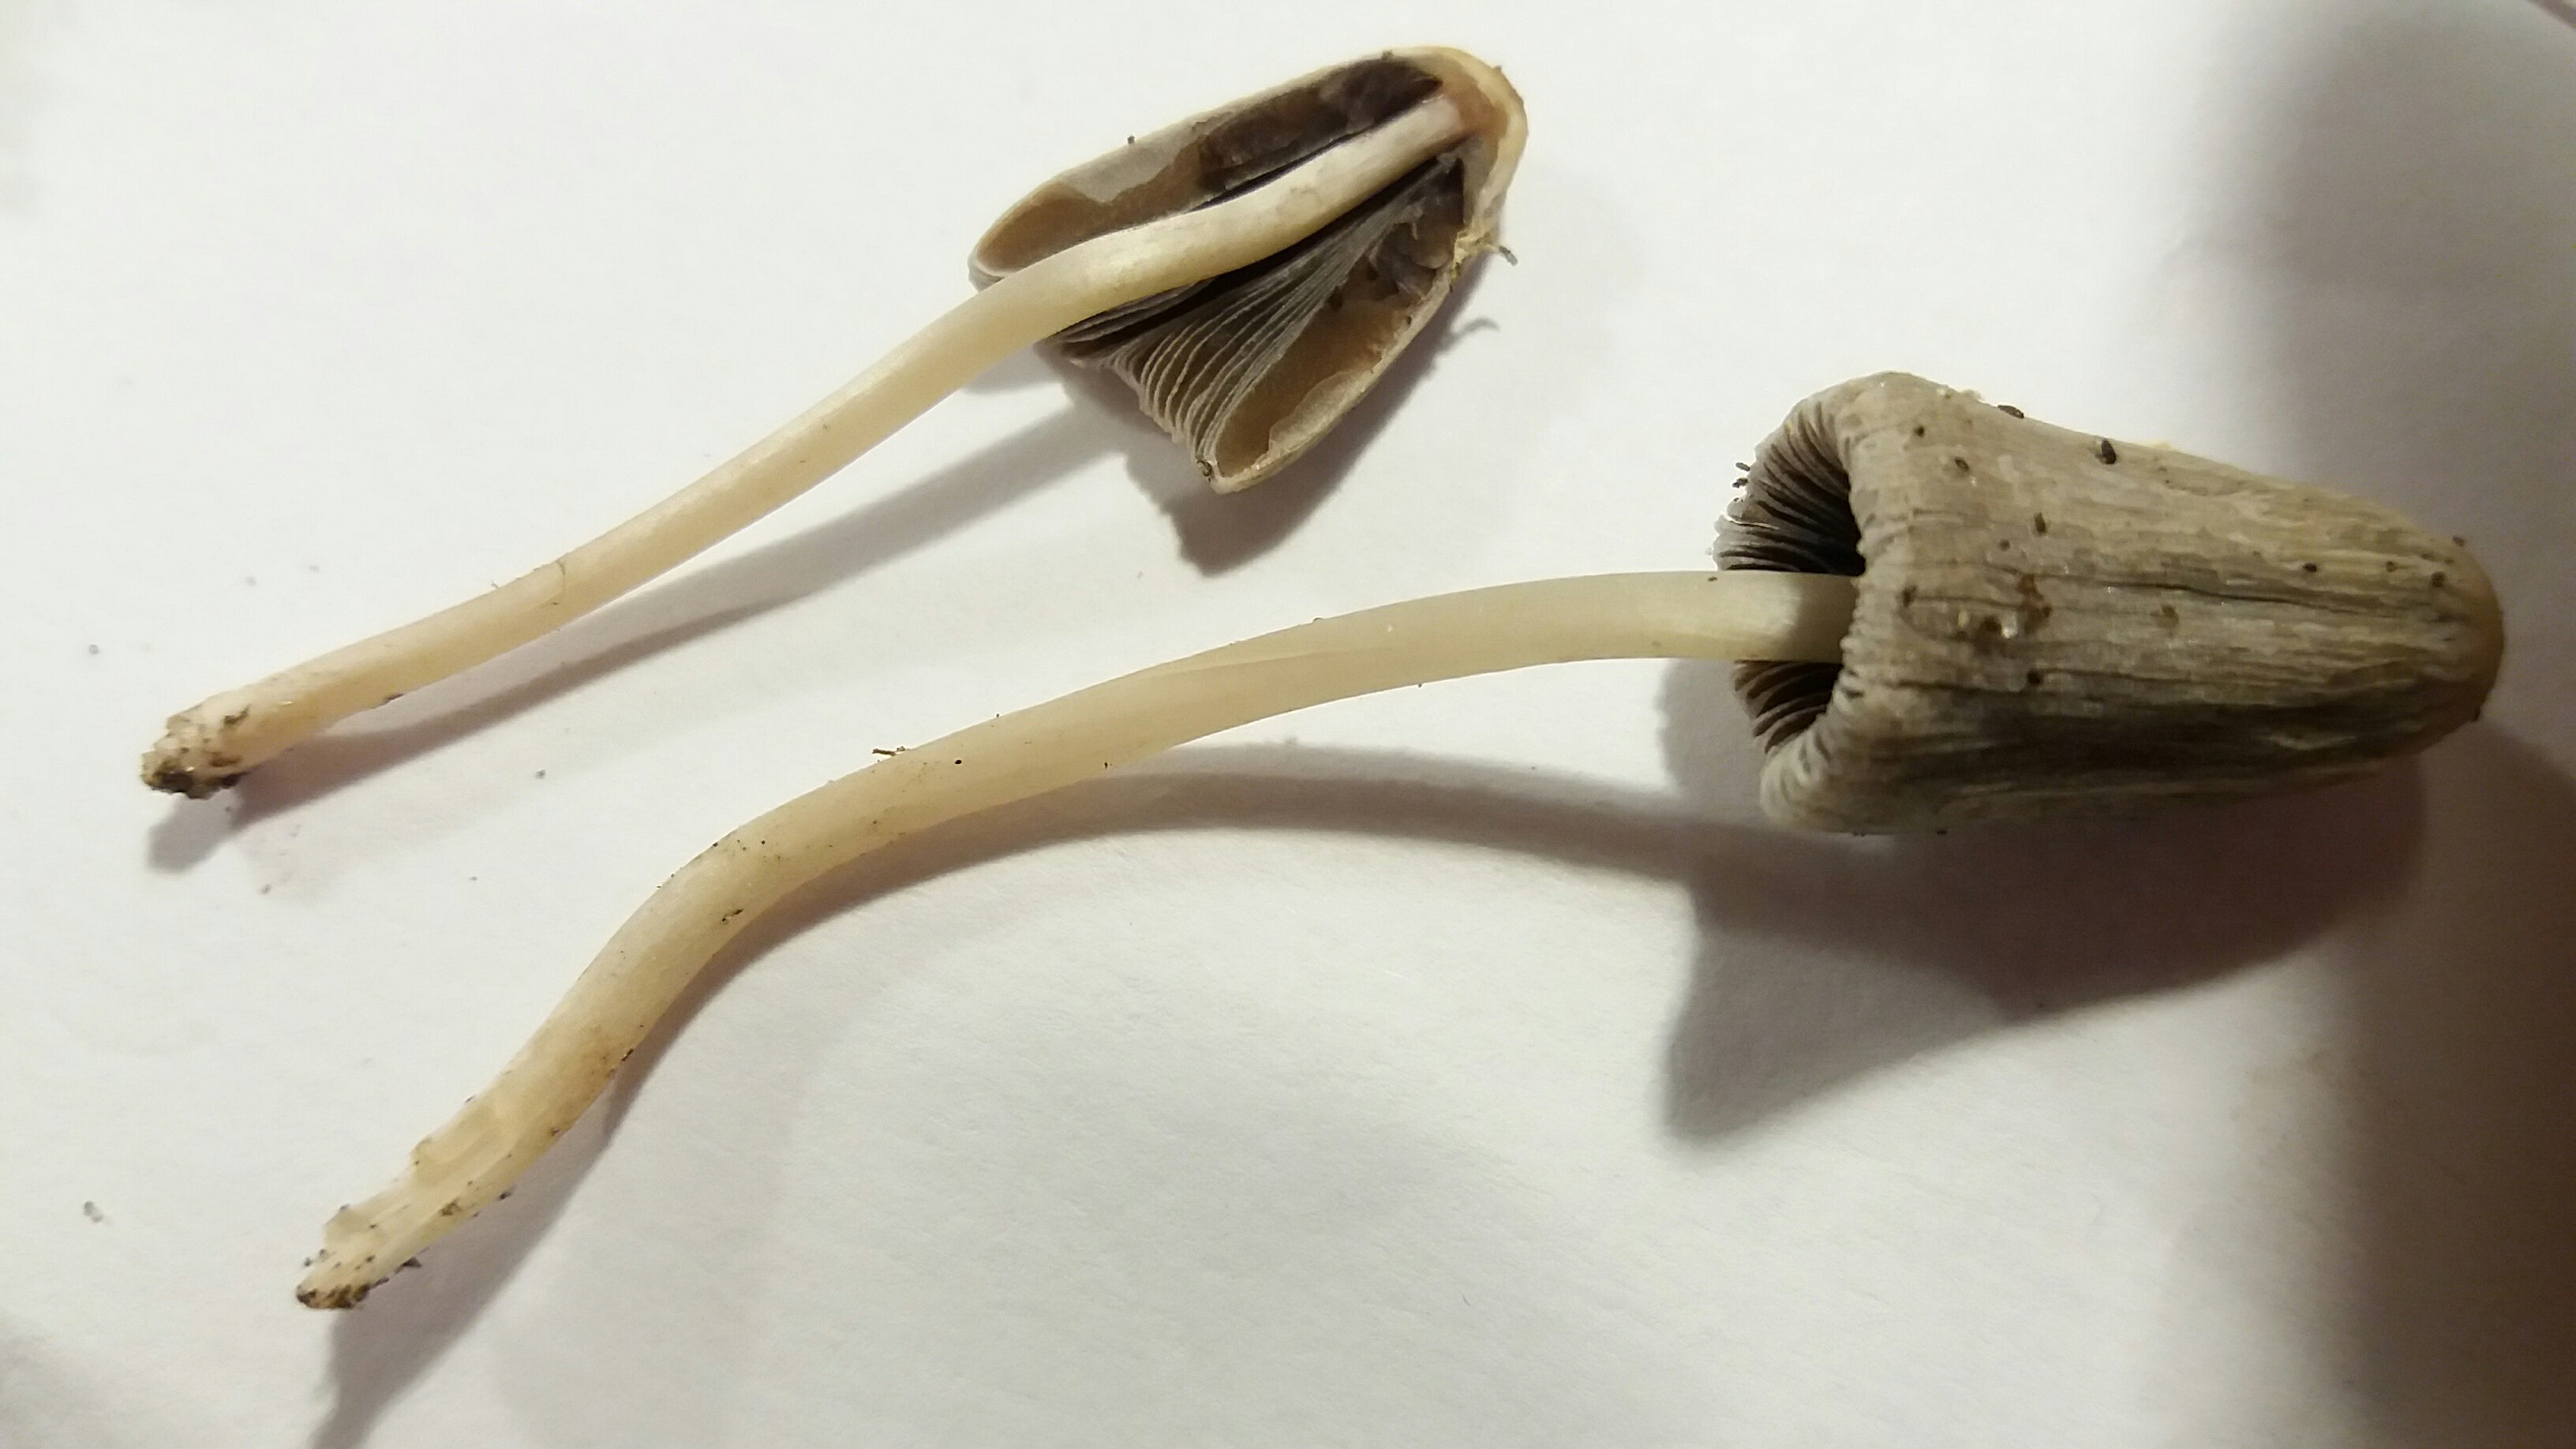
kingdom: Fungi
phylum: Basidiomycota
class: Agaricomycetes
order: Agaricales
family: Psathyrellaceae
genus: Parasola
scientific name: Parasola
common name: hjulhat
